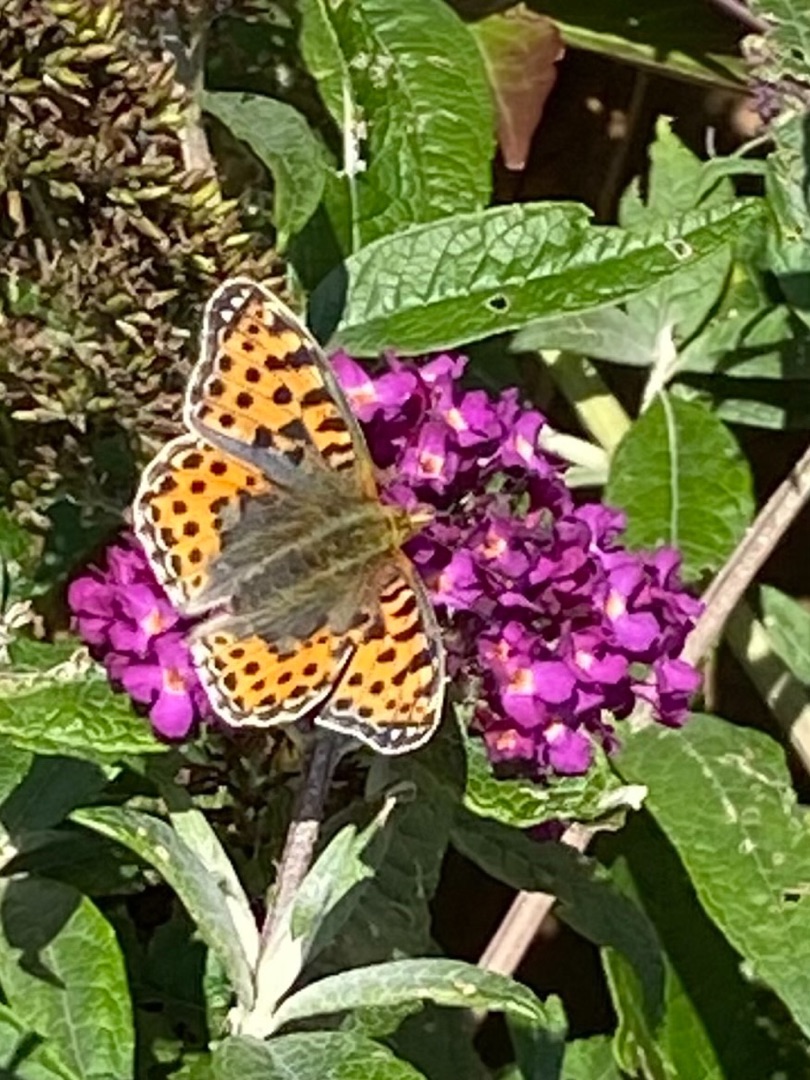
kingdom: Animalia
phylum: Arthropoda
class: Insecta
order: Lepidoptera
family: Nymphalidae
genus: Issoria
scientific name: Issoria lathonia
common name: Storplettet perlemorsommerfugl
